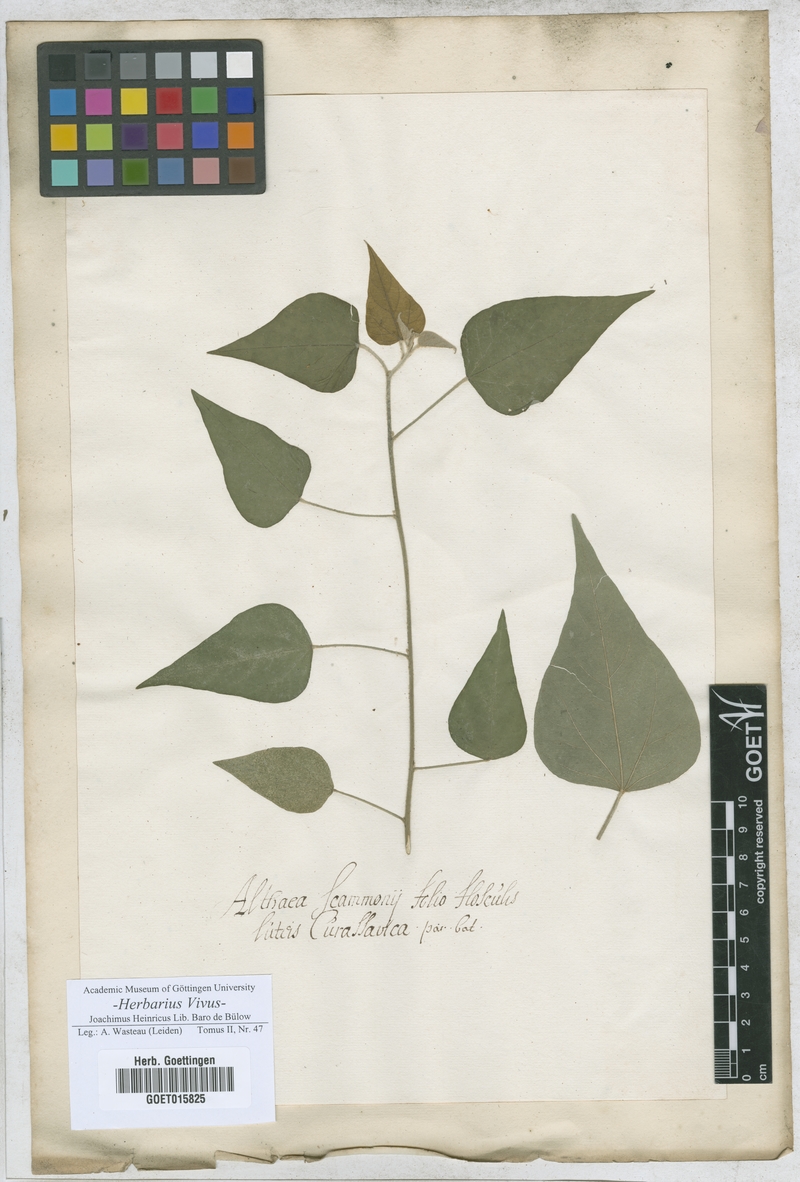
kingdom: Plantae
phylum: Tracheophyta
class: Magnoliopsida
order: Malvales
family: Malvaceae
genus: Althaea
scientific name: Althaea
